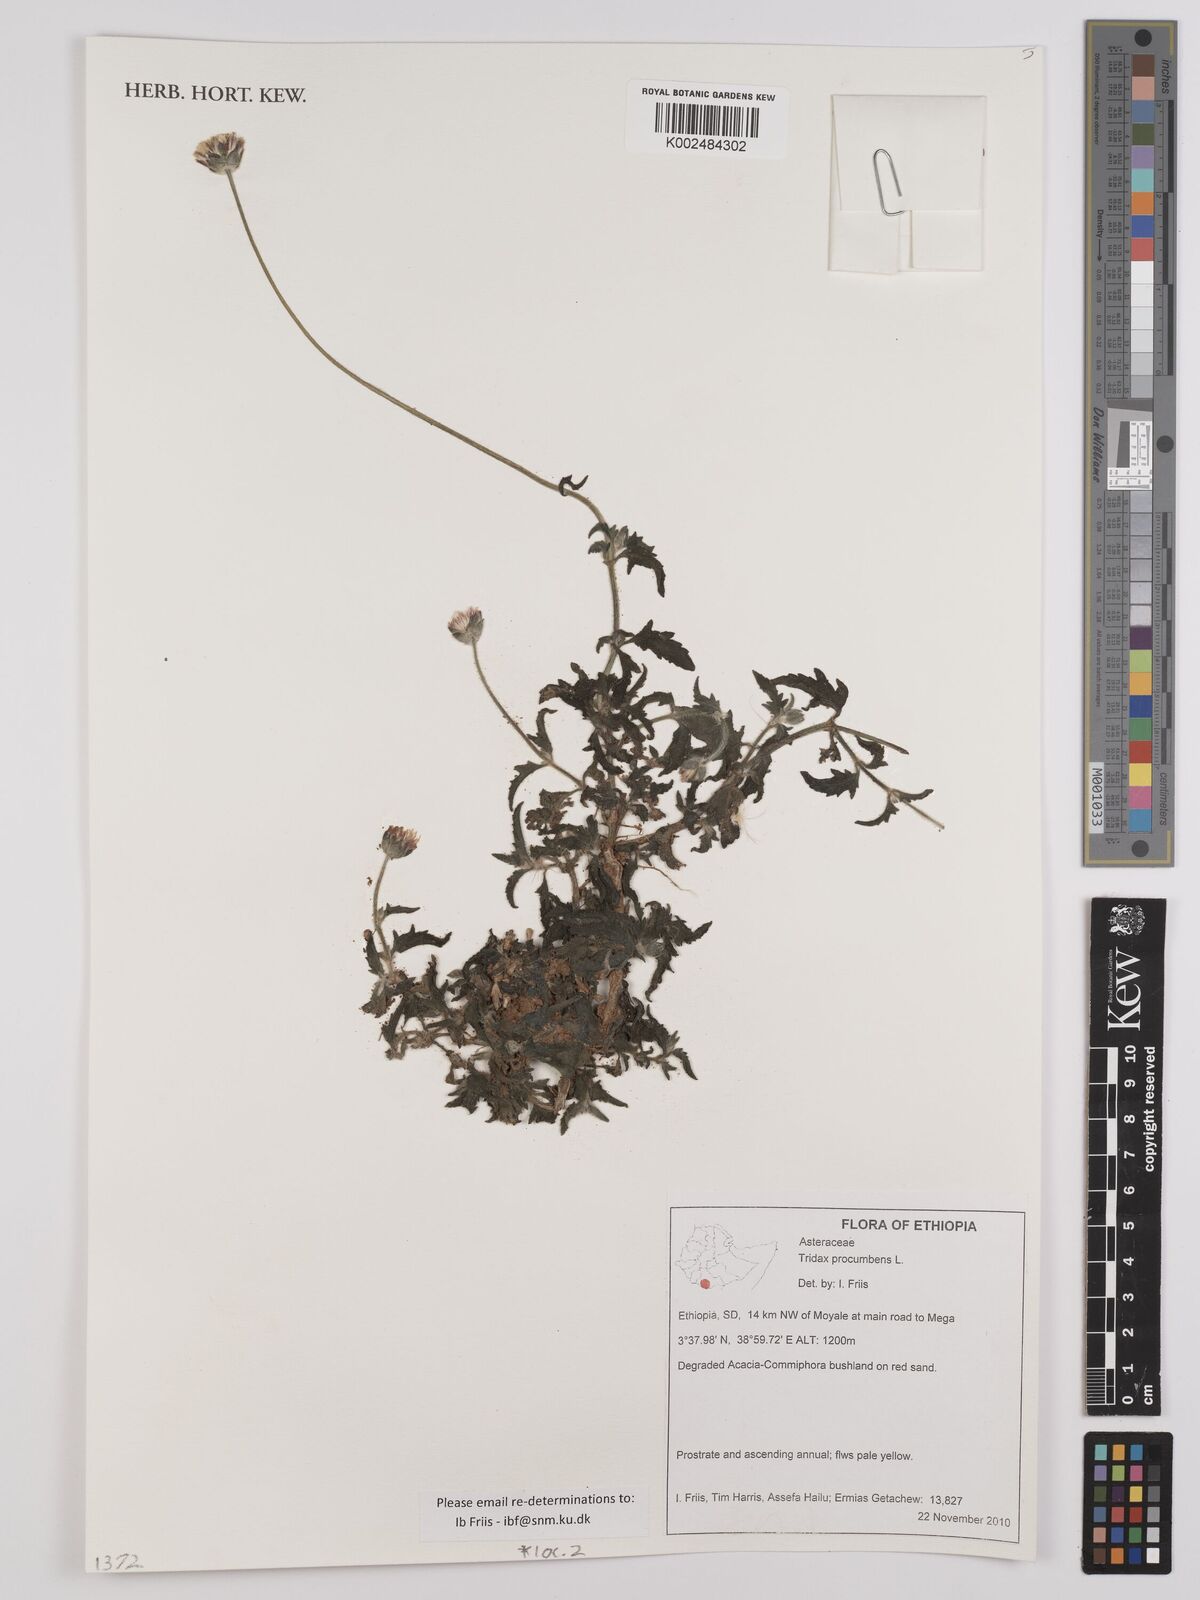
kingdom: Plantae
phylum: Tracheophyta
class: Magnoliopsida
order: Asterales
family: Asteraceae
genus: Tridax
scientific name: Tridax procumbens
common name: Coatbuttons
